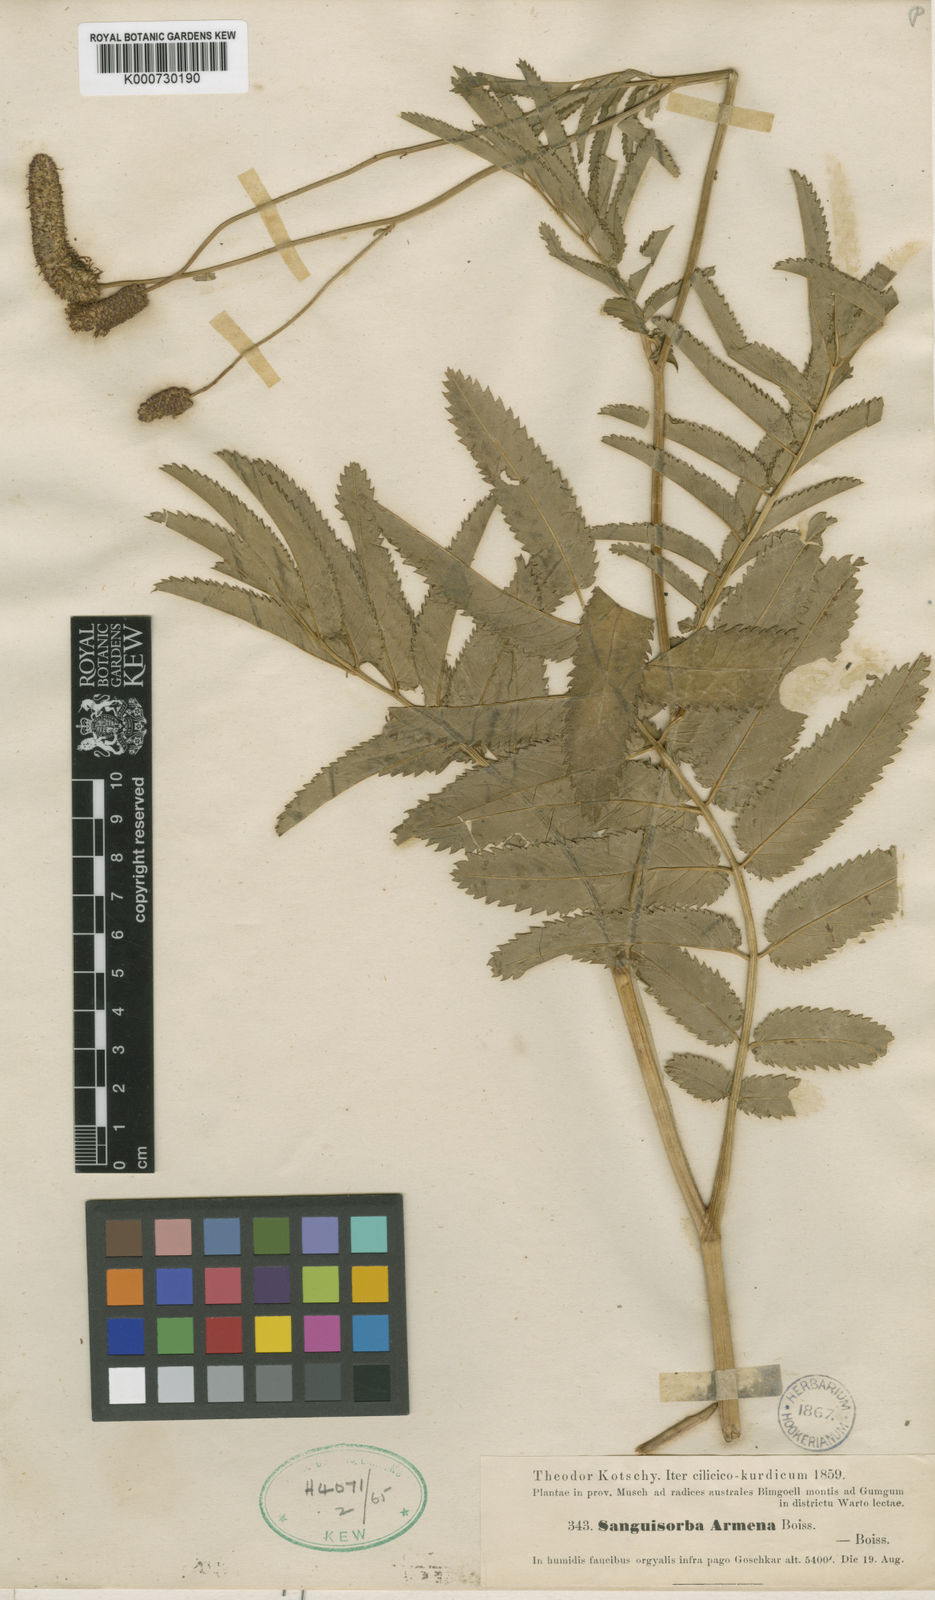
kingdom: Plantae
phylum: Tracheophyta
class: Magnoliopsida
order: Rosales
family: Rosaceae
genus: Sanguisorba
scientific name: Sanguisorba armena
